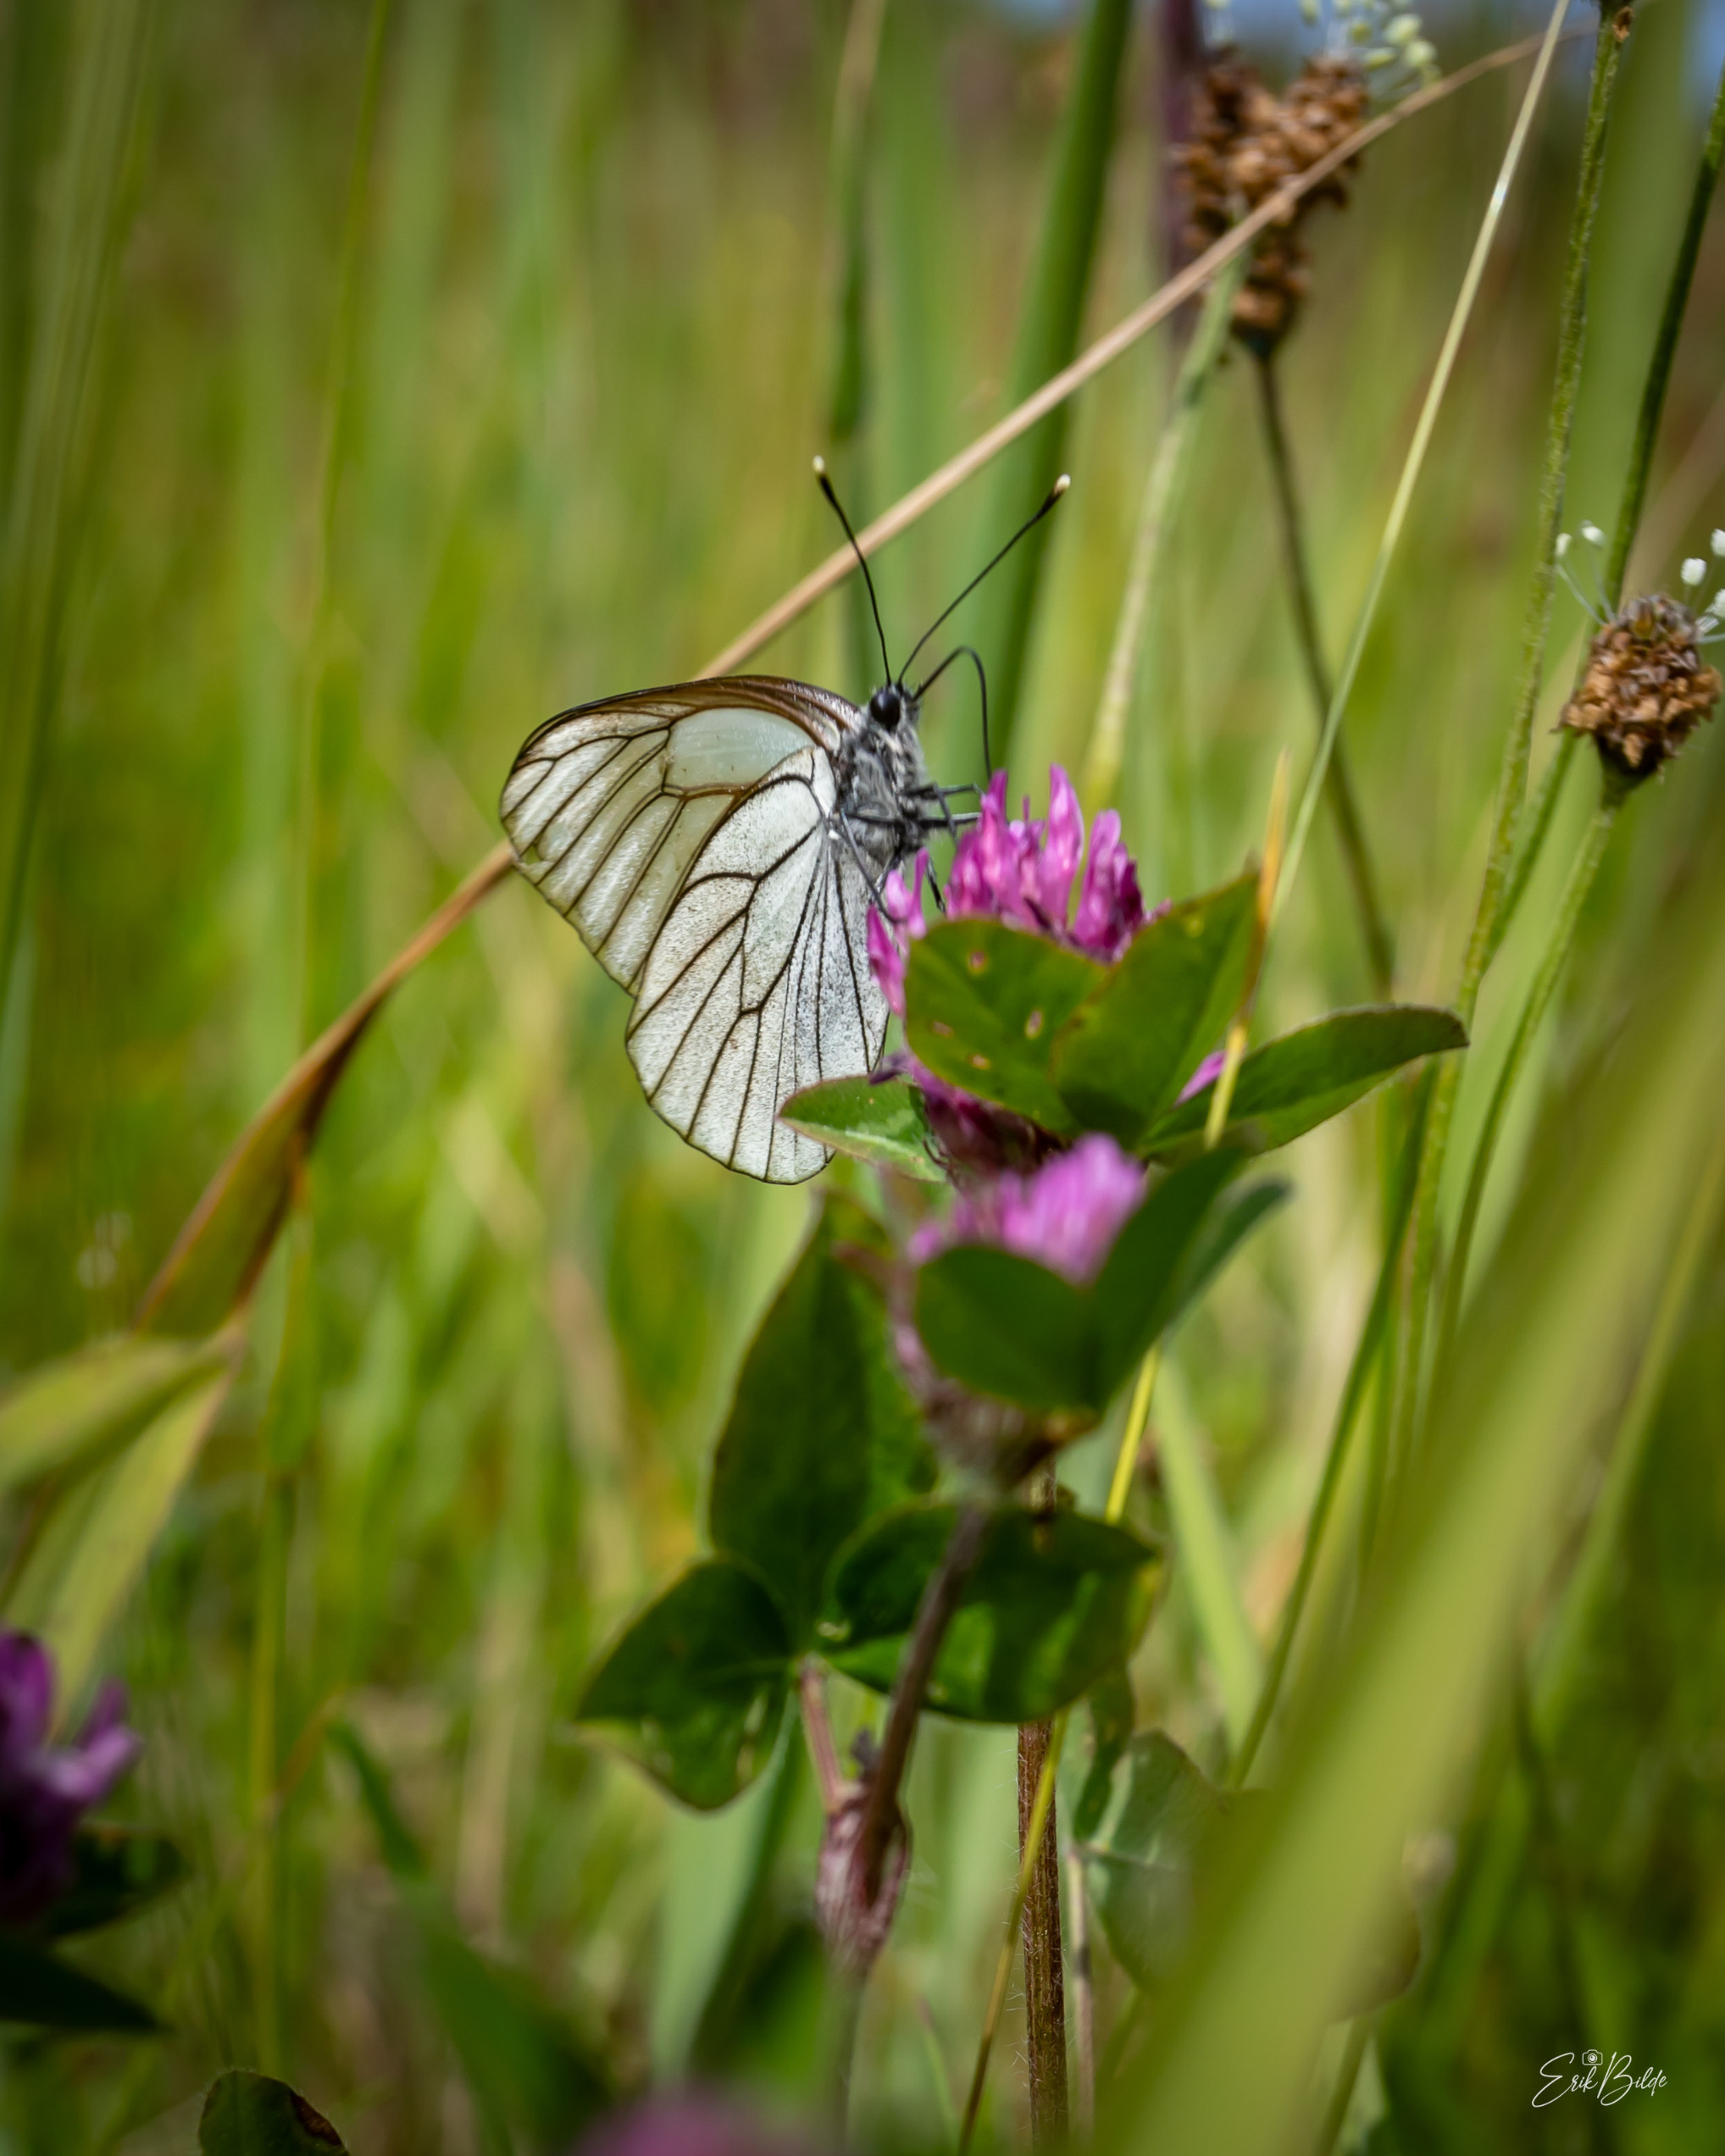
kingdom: Animalia
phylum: Arthropoda
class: Insecta
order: Lepidoptera
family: Pieridae
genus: Aporia
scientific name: Aporia crataegi
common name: Sortåret hvidvinge
